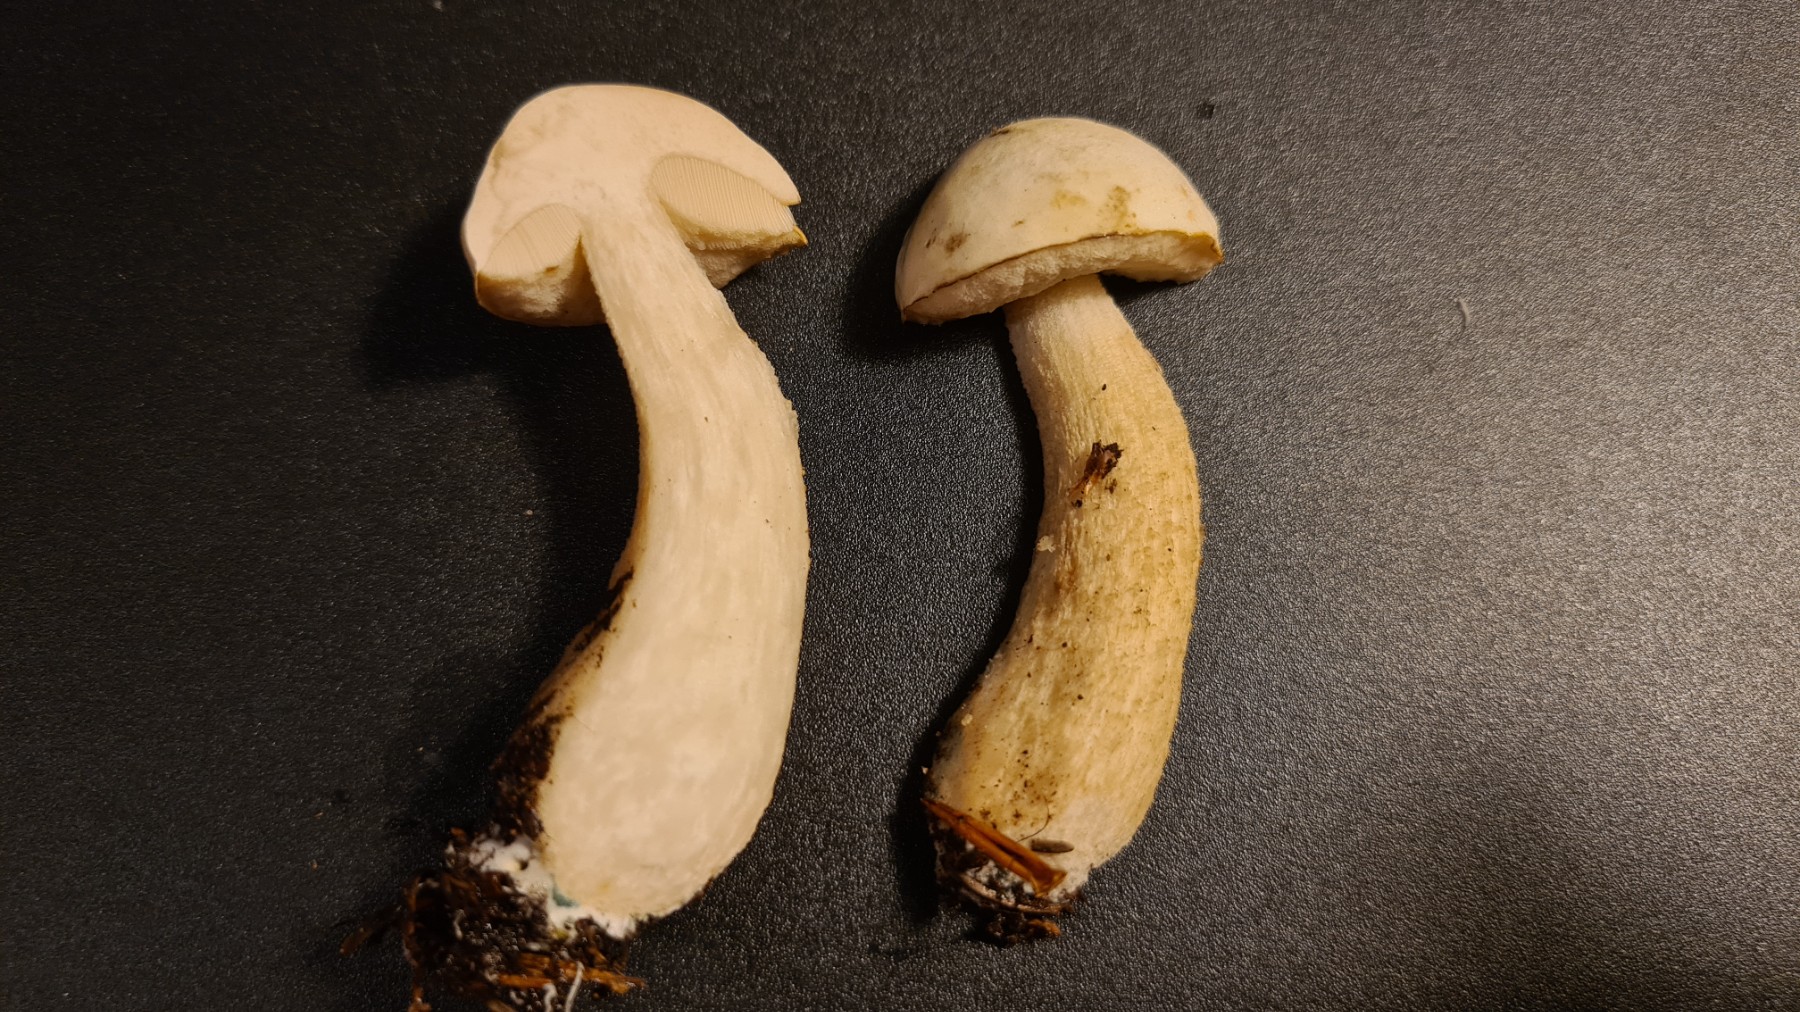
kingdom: Fungi
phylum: Basidiomycota
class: Agaricomycetes
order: Boletales
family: Boletaceae
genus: Leccinum
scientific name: Leccinum
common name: skælrørhat
